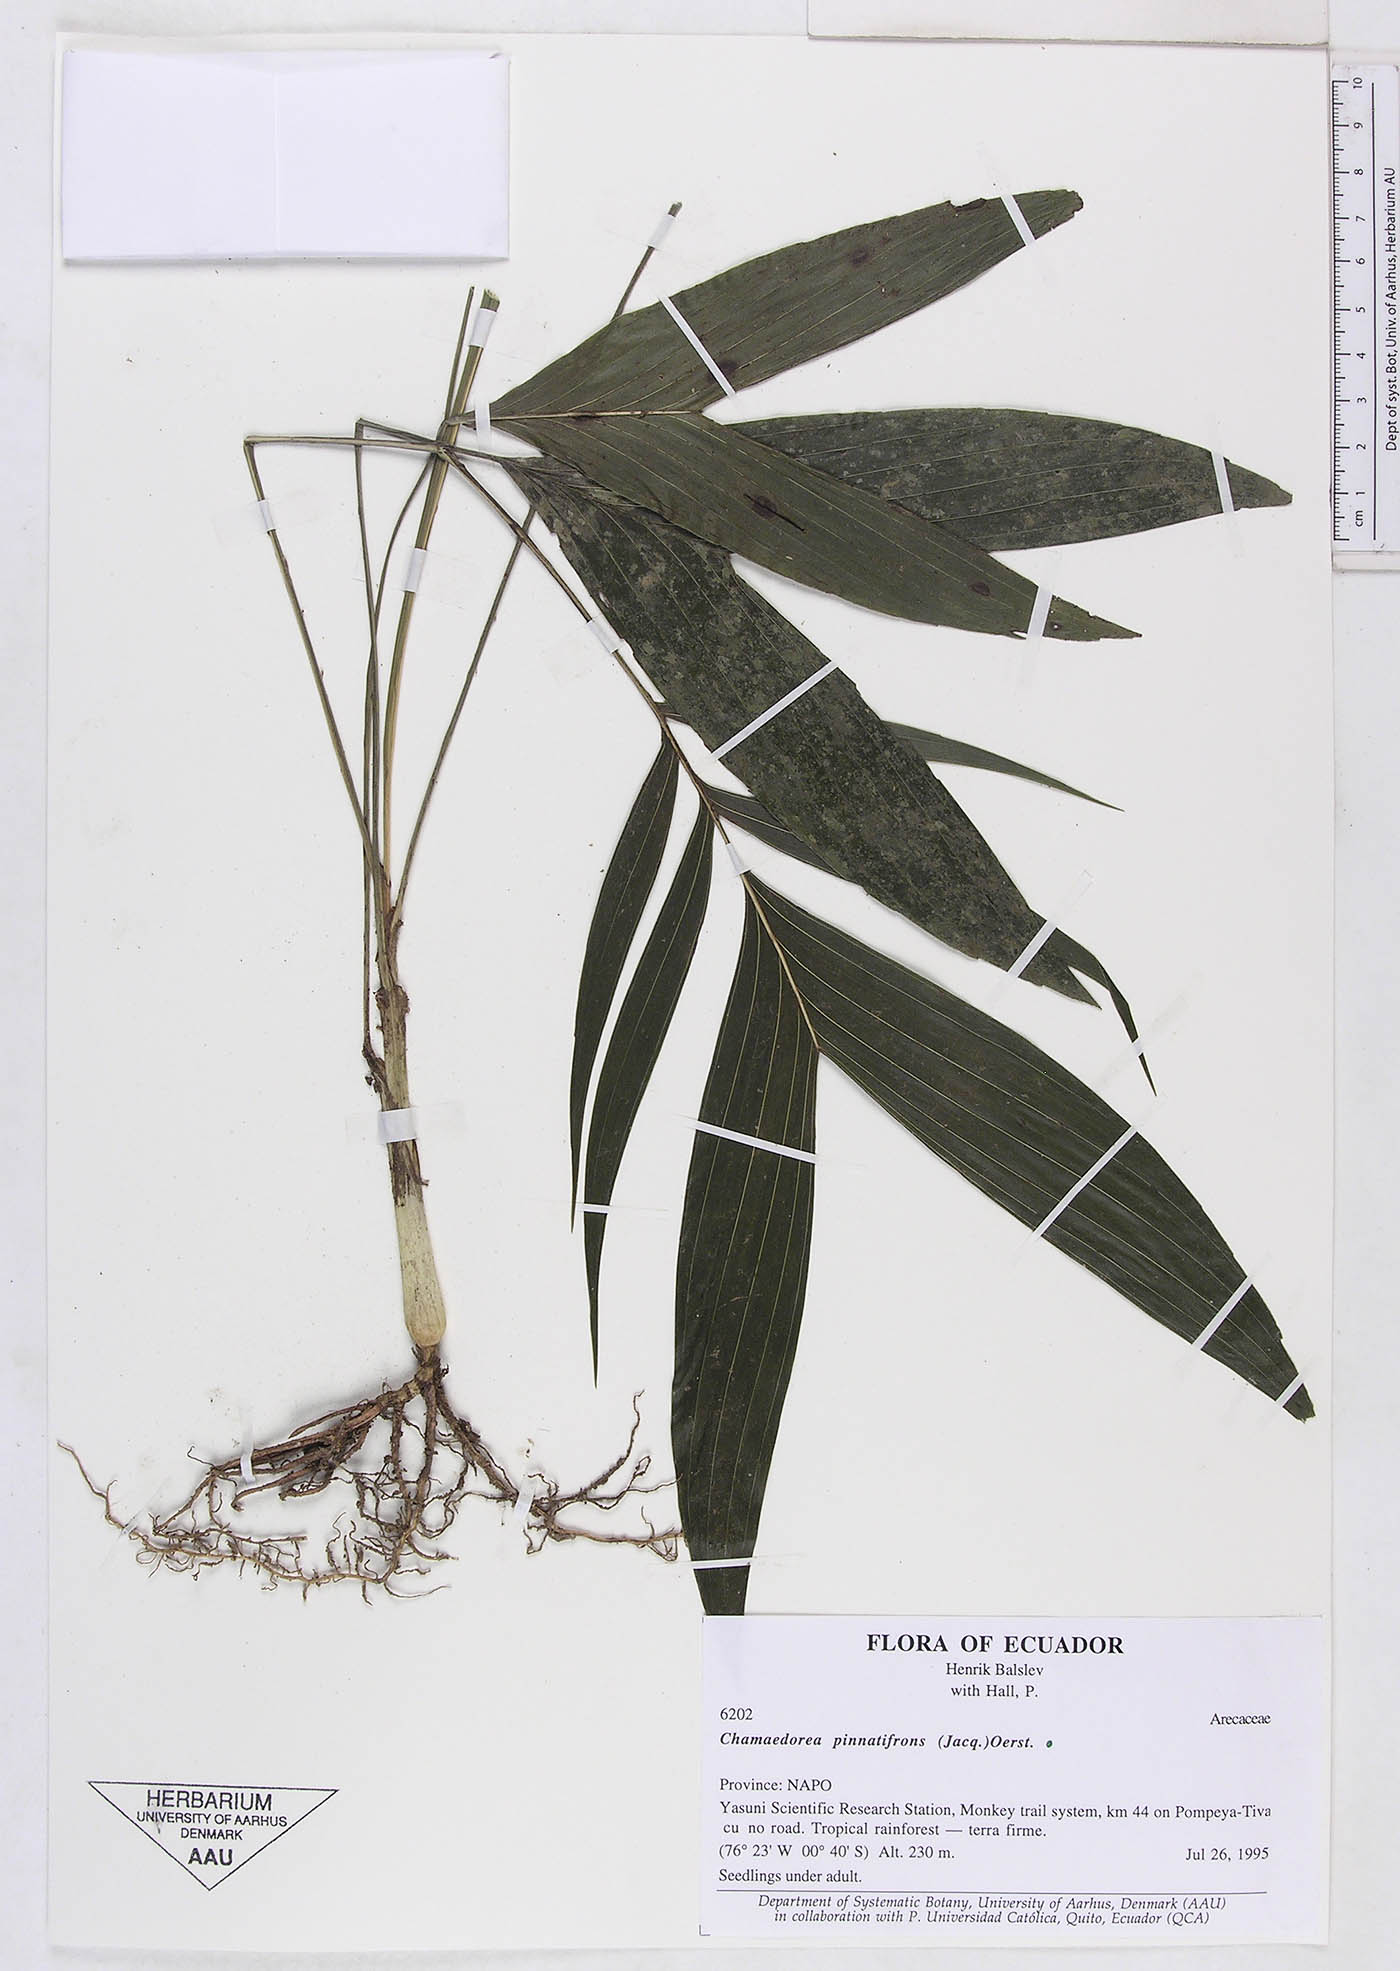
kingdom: Plantae
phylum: Tracheophyta
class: Liliopsida
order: Arecales
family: Arecaceae
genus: Chamaedorea
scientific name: Chamaedorea pinnatifrons
